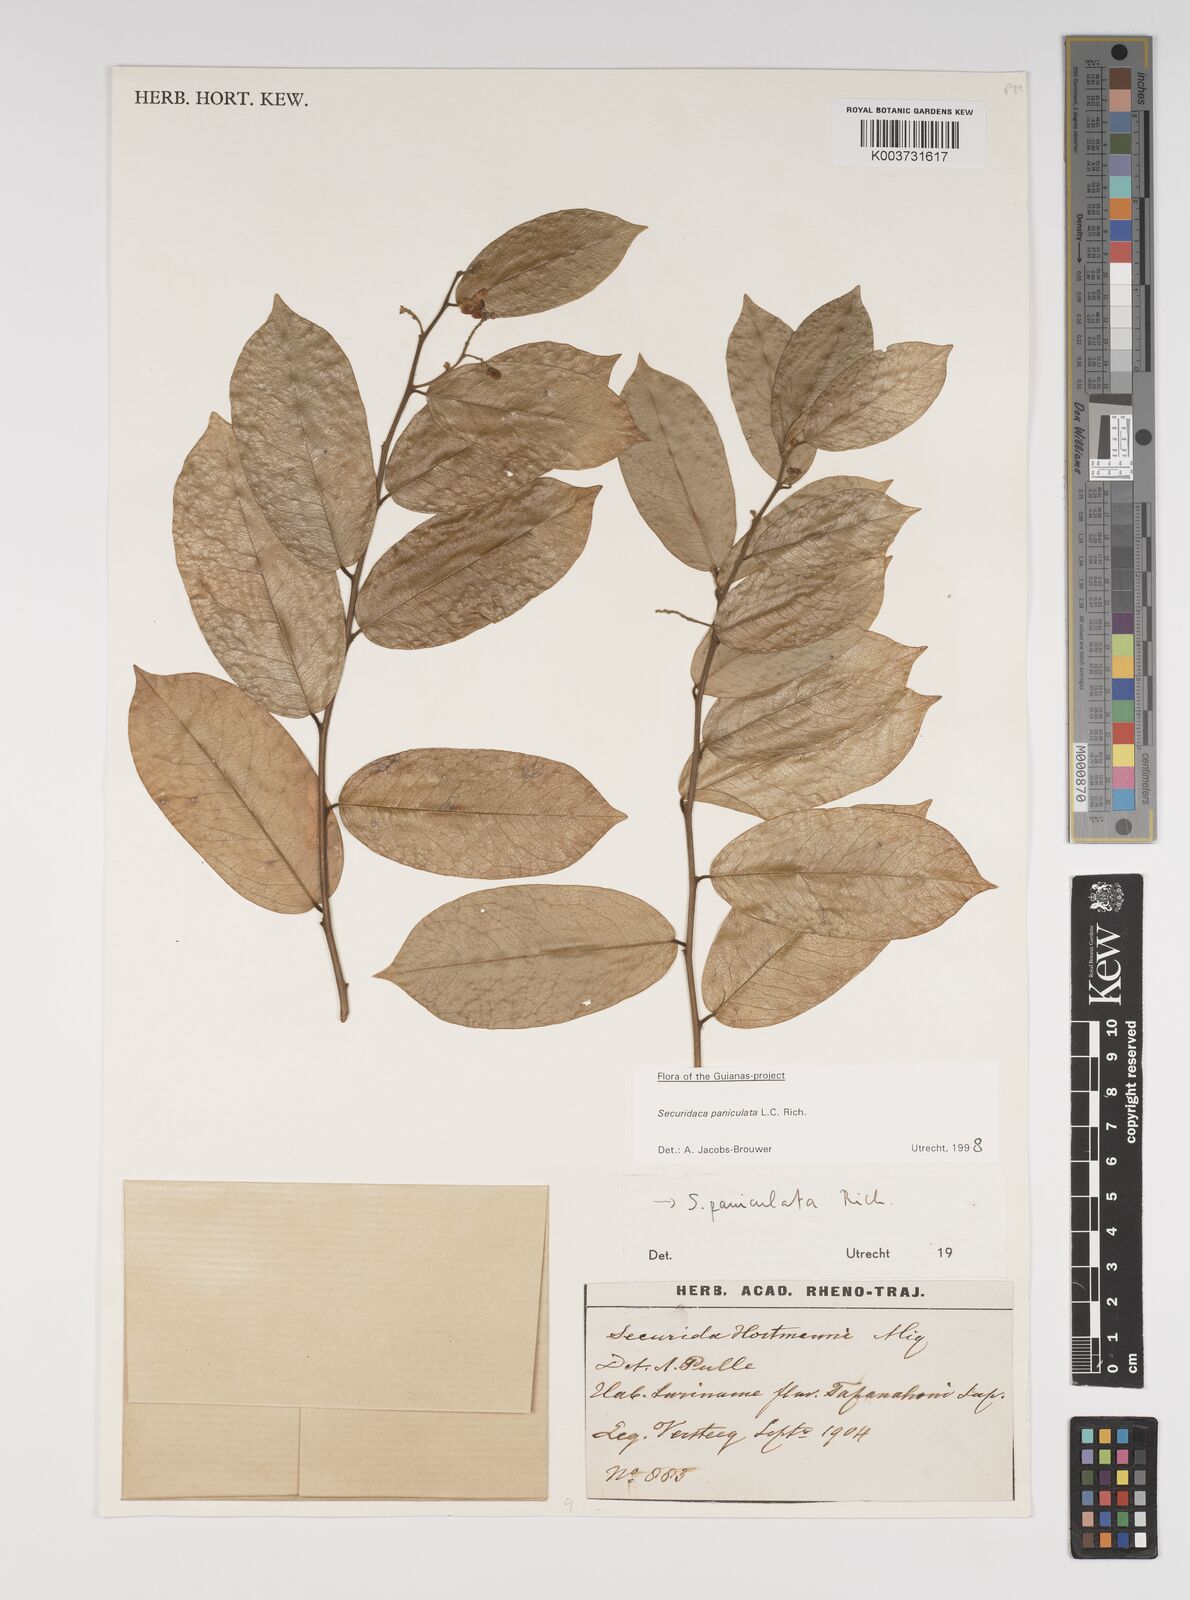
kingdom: Plantae
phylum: Tracheophyta
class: Magnoliopsida
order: Fabales
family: Polygalaceae
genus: Securidaca
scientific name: Securidaca paniculata
